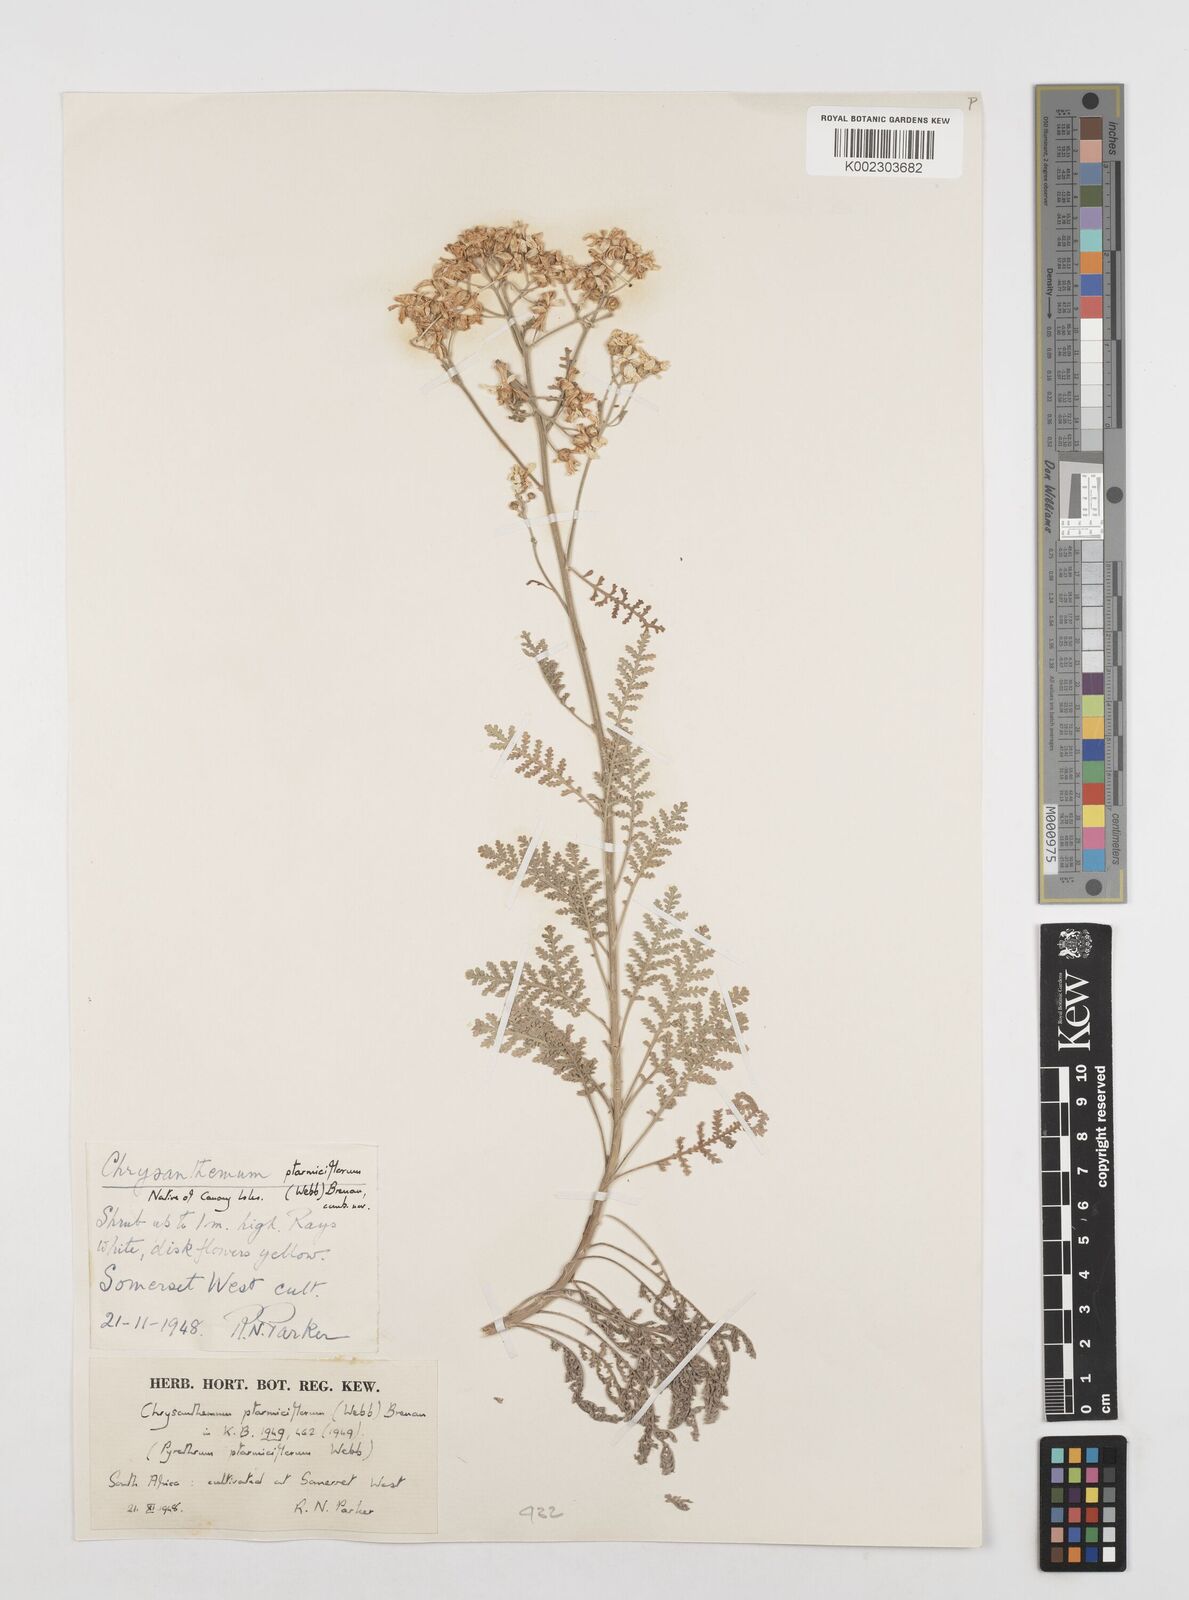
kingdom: Plantae
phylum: Tracheophyta
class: Magnoliopsida
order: Asterales
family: Asteraceae
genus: Gonospermum
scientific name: Gonospermum ptarmiciflorum
